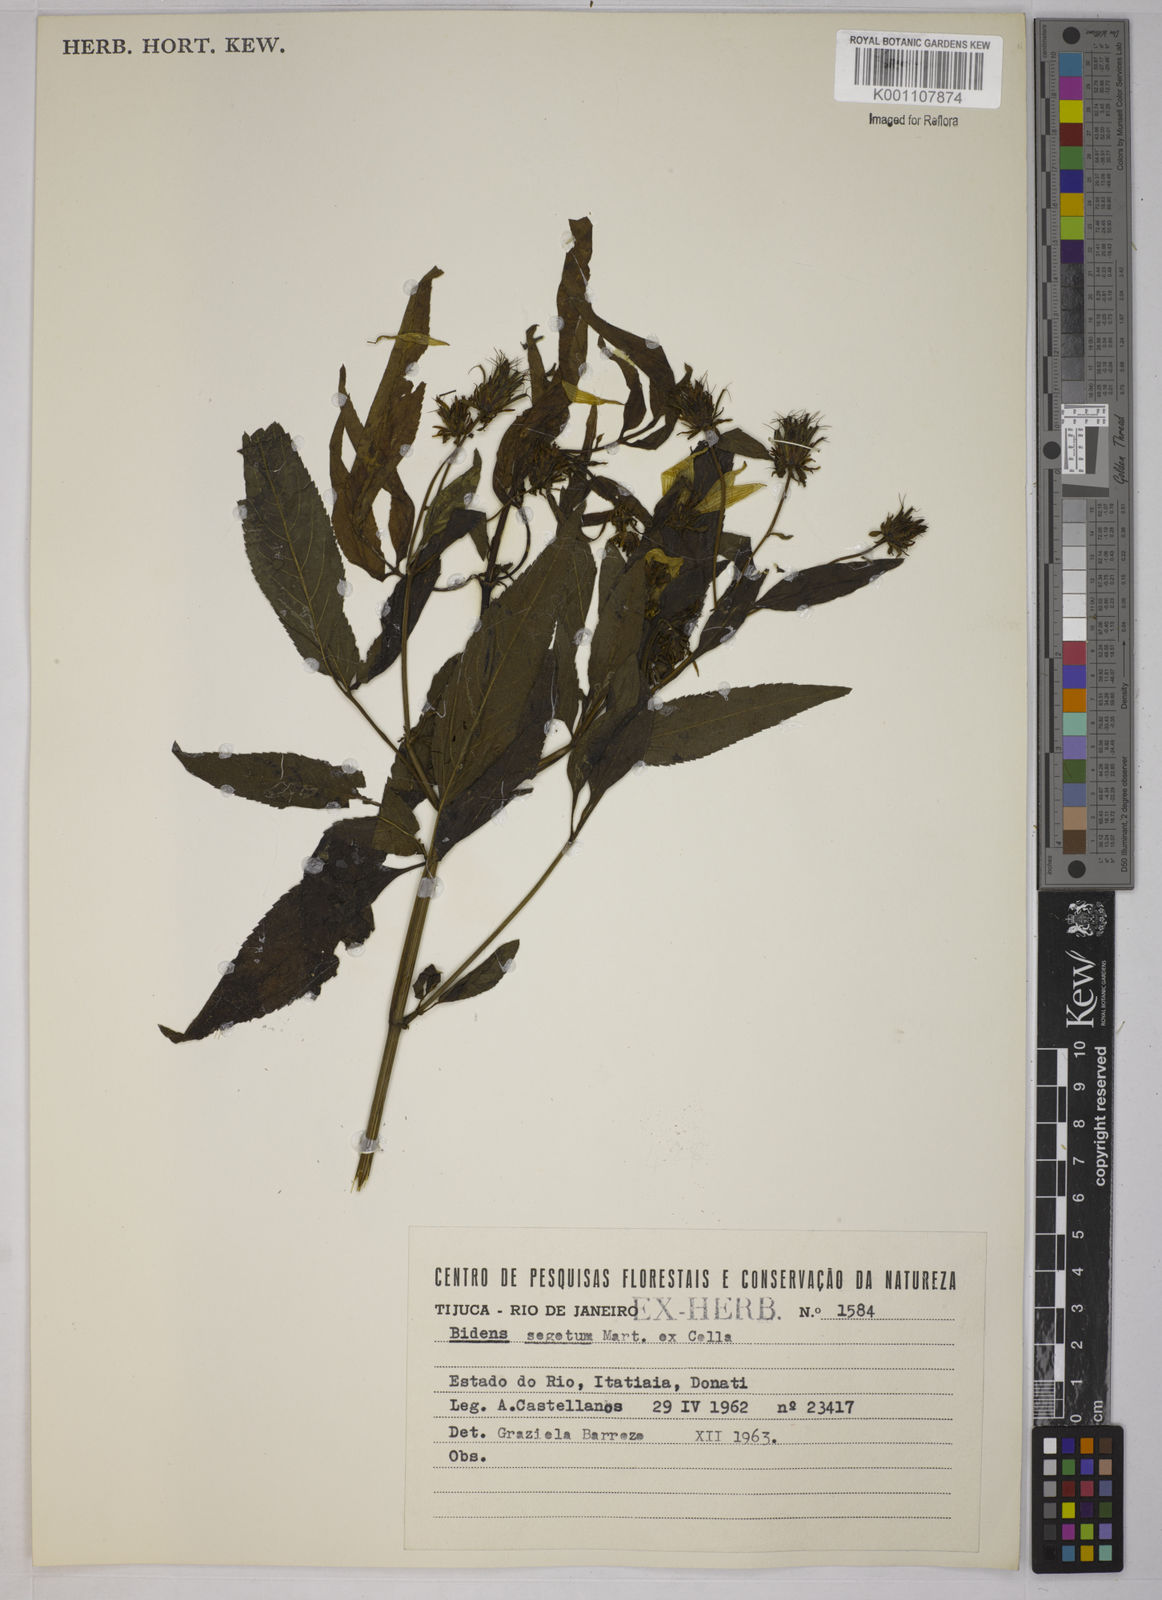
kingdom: Plantae
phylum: Tracheophyta
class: Magnoliopsida
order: Asterales
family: Asteraceae
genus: Bidens
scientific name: Bidens segetum
